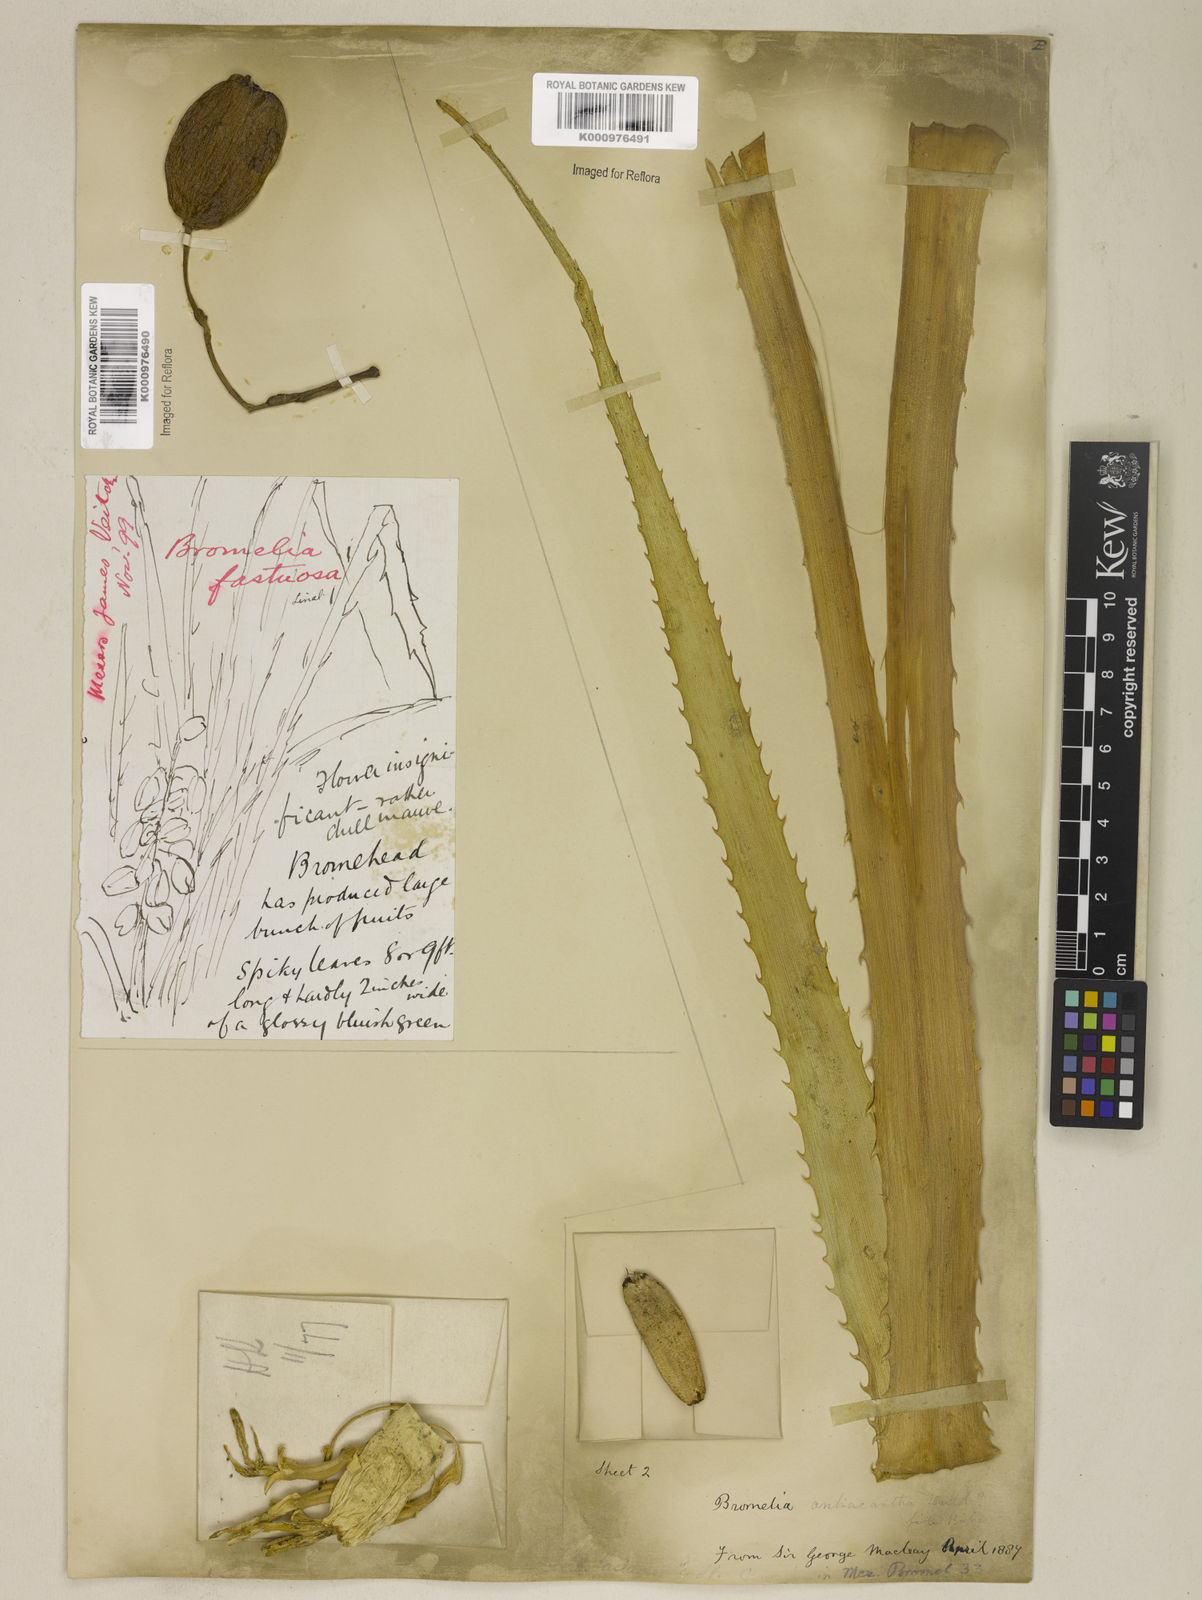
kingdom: Plantae
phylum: Tracheophyta
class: Liliopsida
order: Poales
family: Bromeliaceae
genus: Bromelia
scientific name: Bromelia antiacantha
